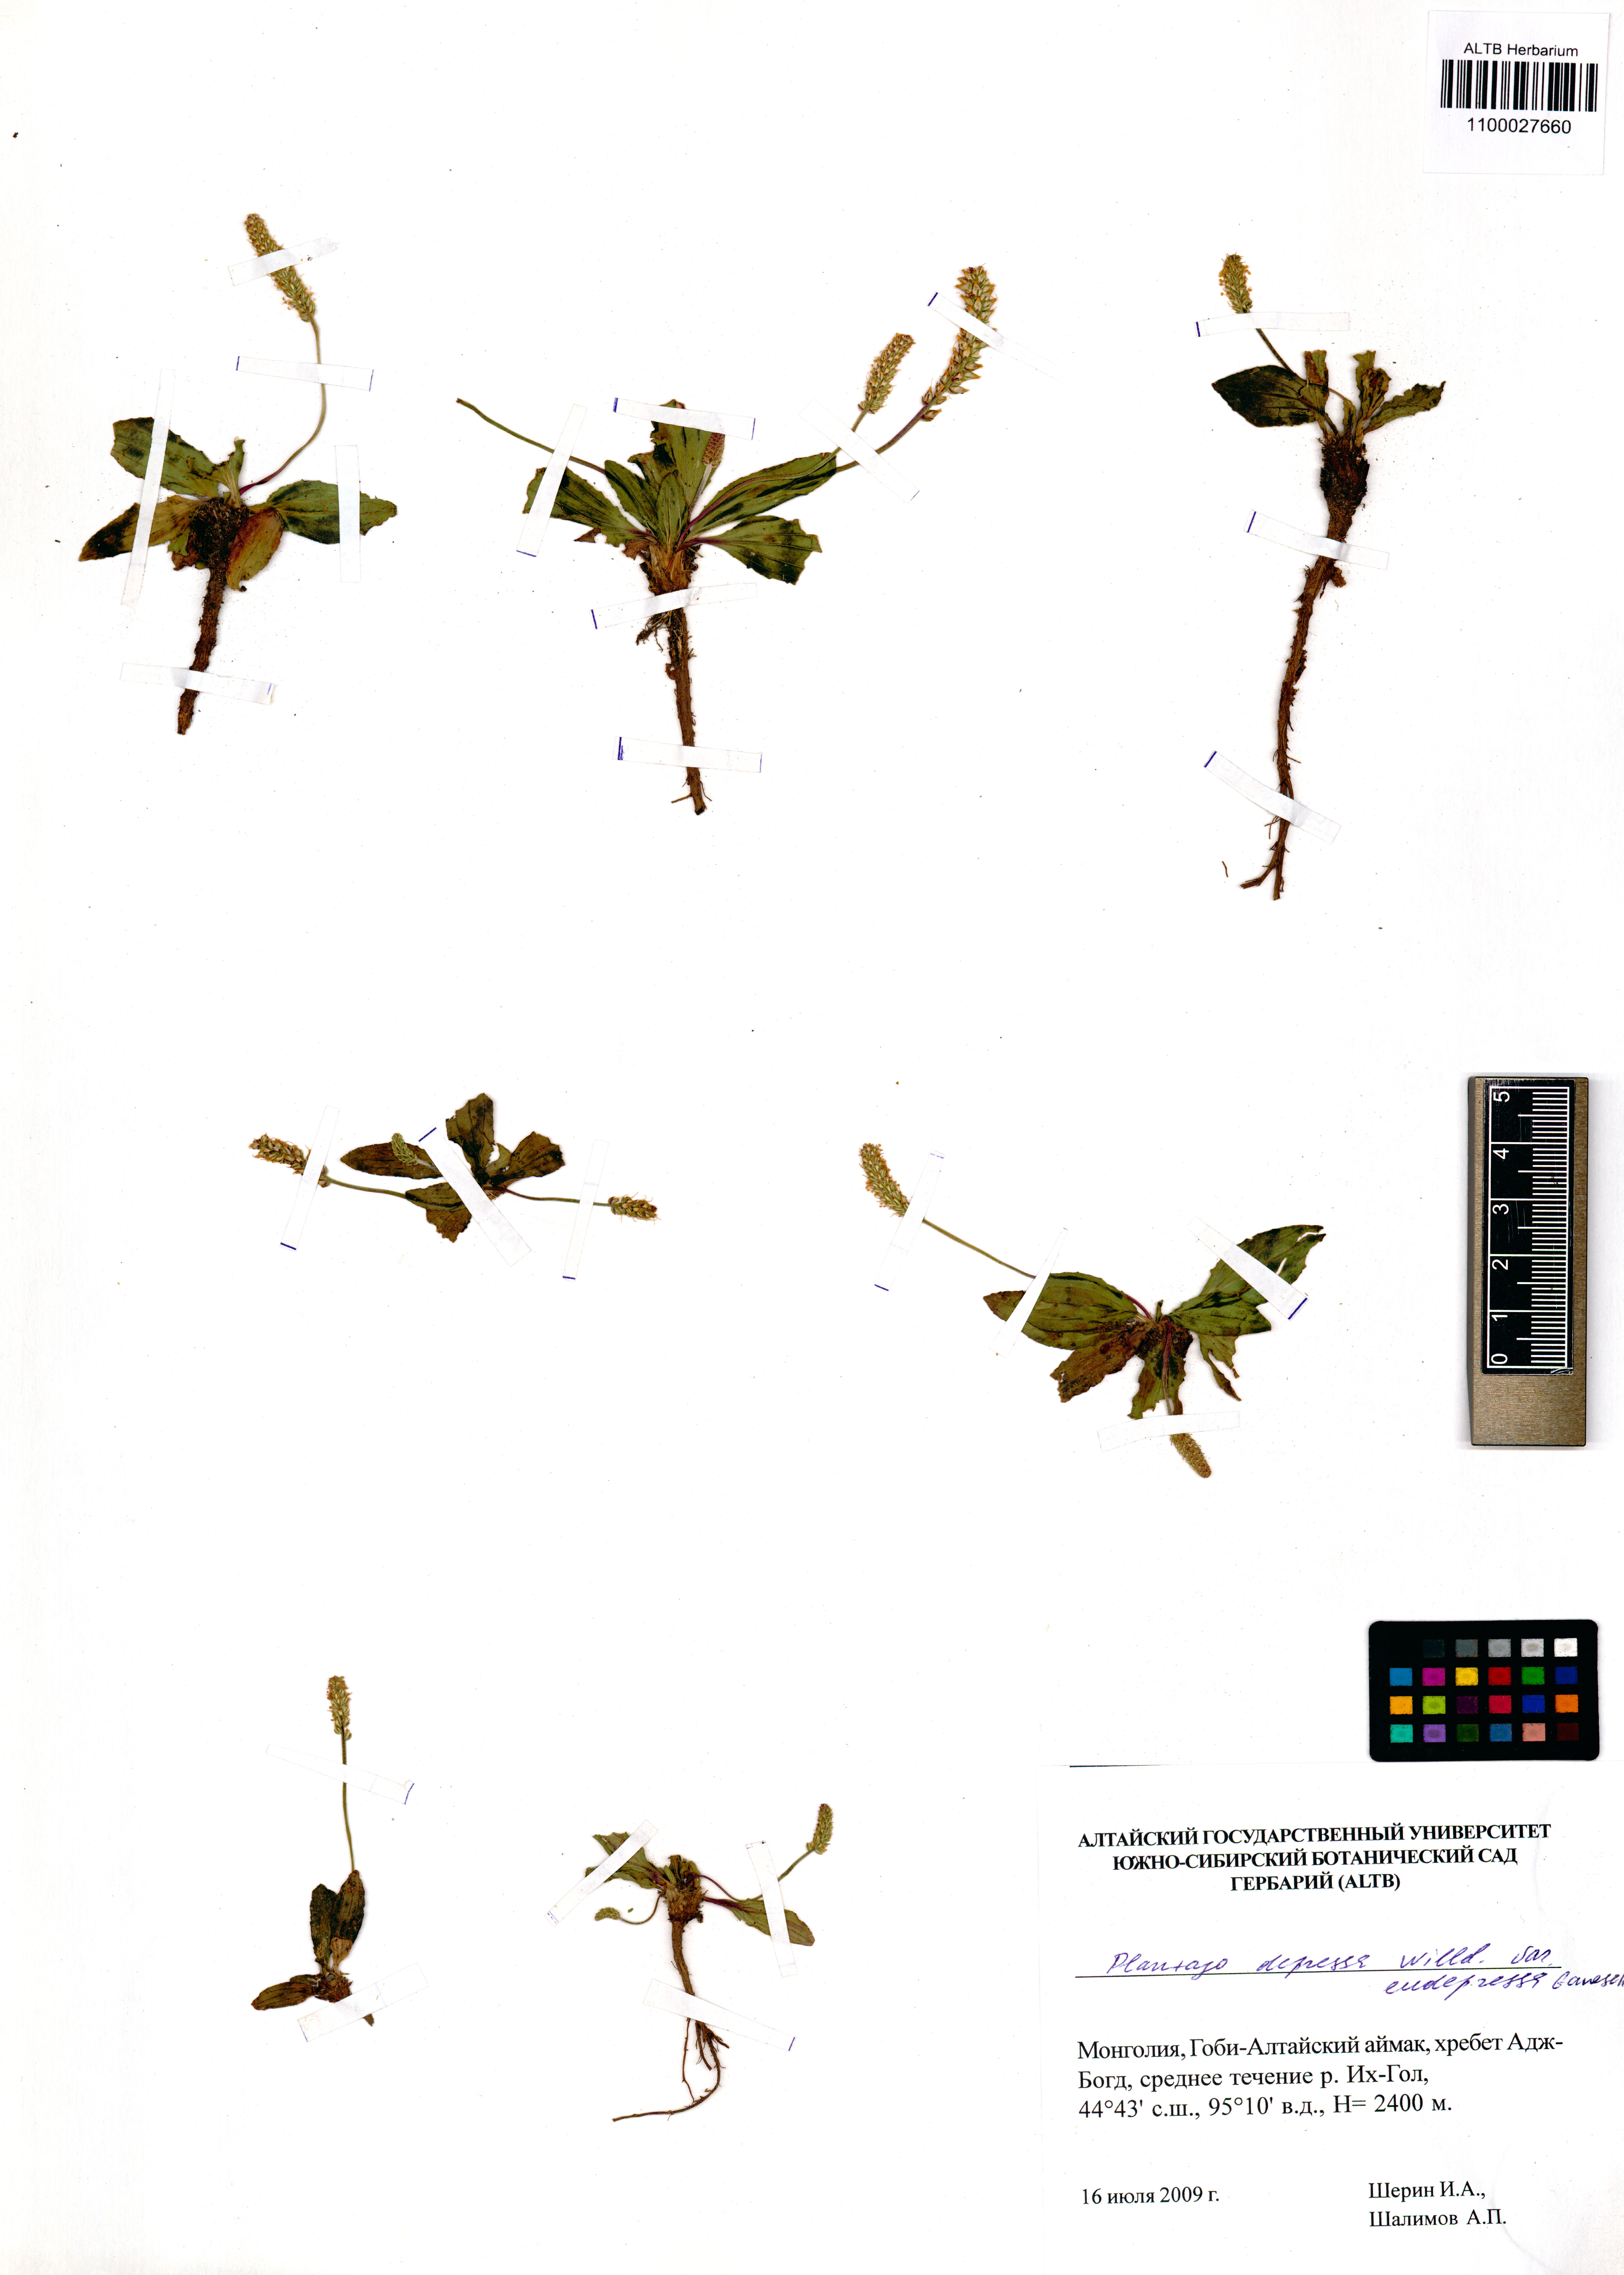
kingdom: Plantae
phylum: Tracheophyta
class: Magnoliopsida
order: Lamiales
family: Plantaginaceae
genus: Plantago
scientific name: Plantago depressa
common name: Depressed plantain
